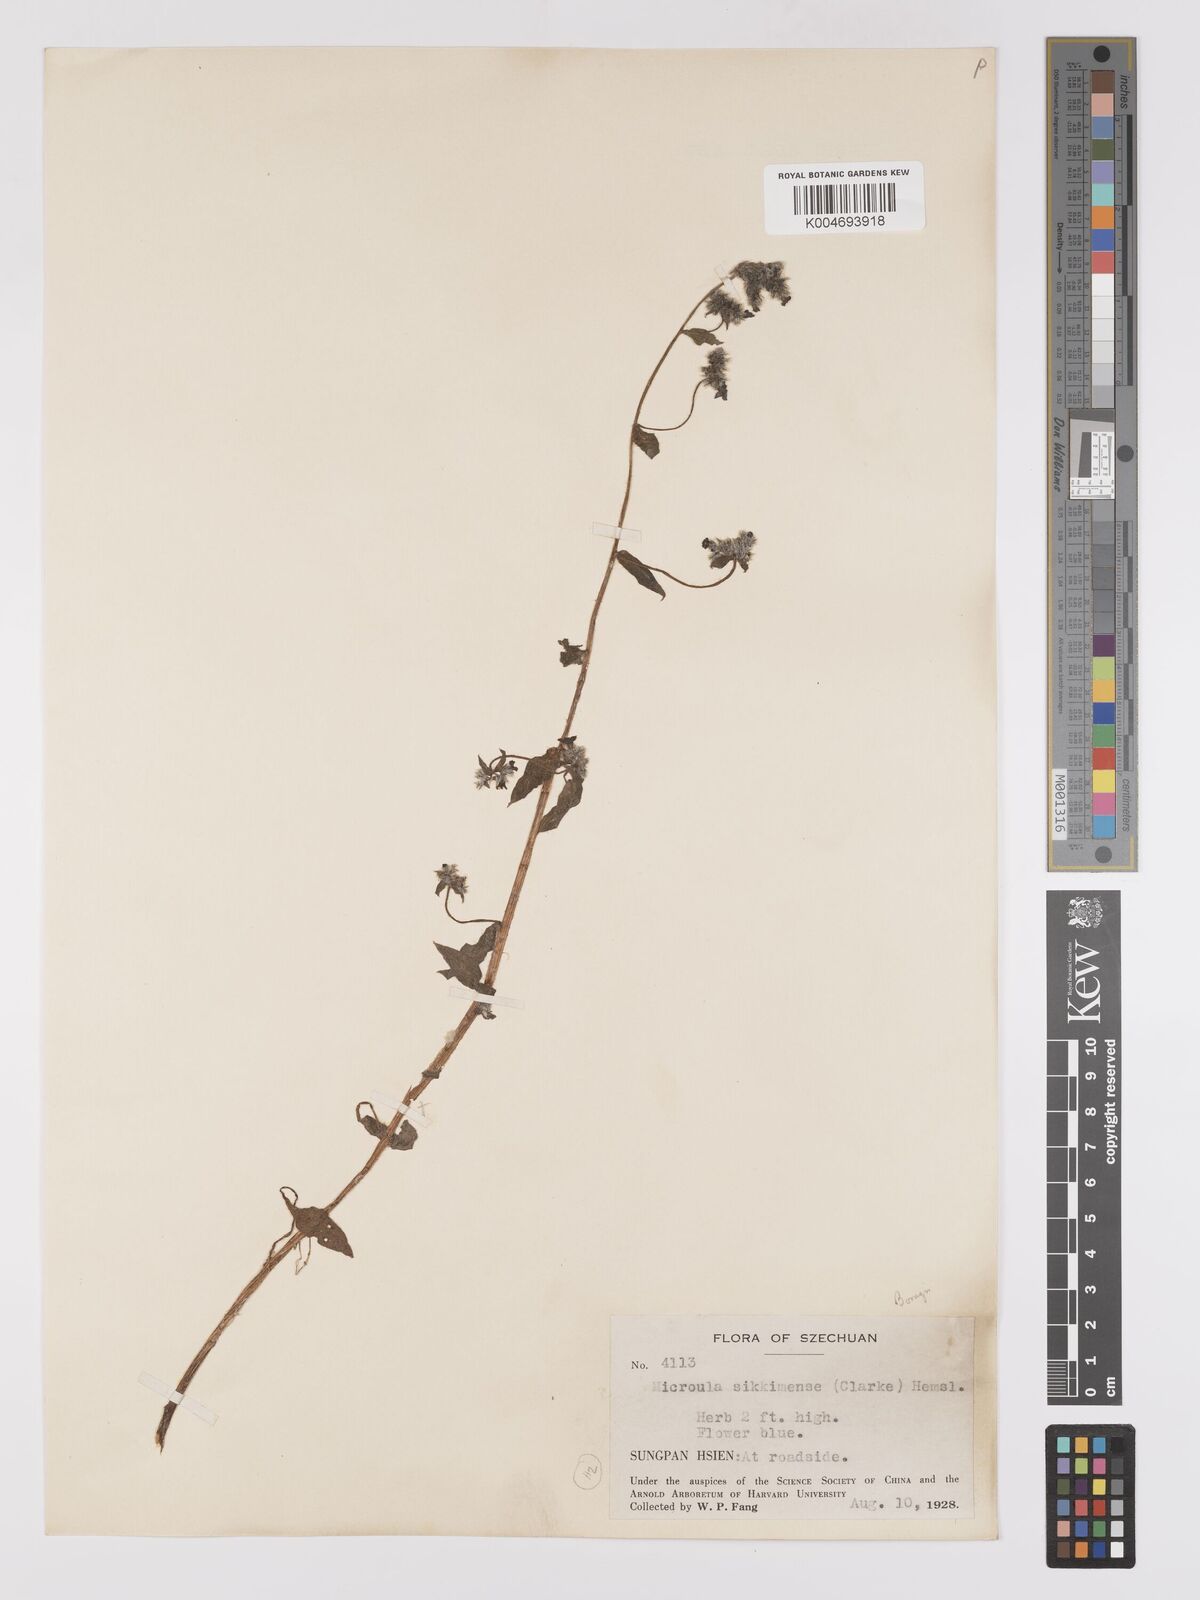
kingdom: Plantae
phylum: Tracheophyta
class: Magnoliopsida
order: Boraginales
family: Boraginaceae
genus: Microula
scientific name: Microula sikkimensis
